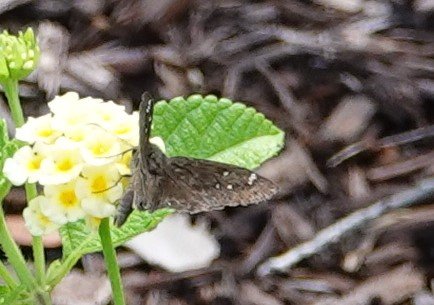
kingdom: Animalia
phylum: Arthropoda
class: Insecta
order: Lepidoptera
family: Hesperiidae
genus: Gesta
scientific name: Gesta
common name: Horace's Duskywing
